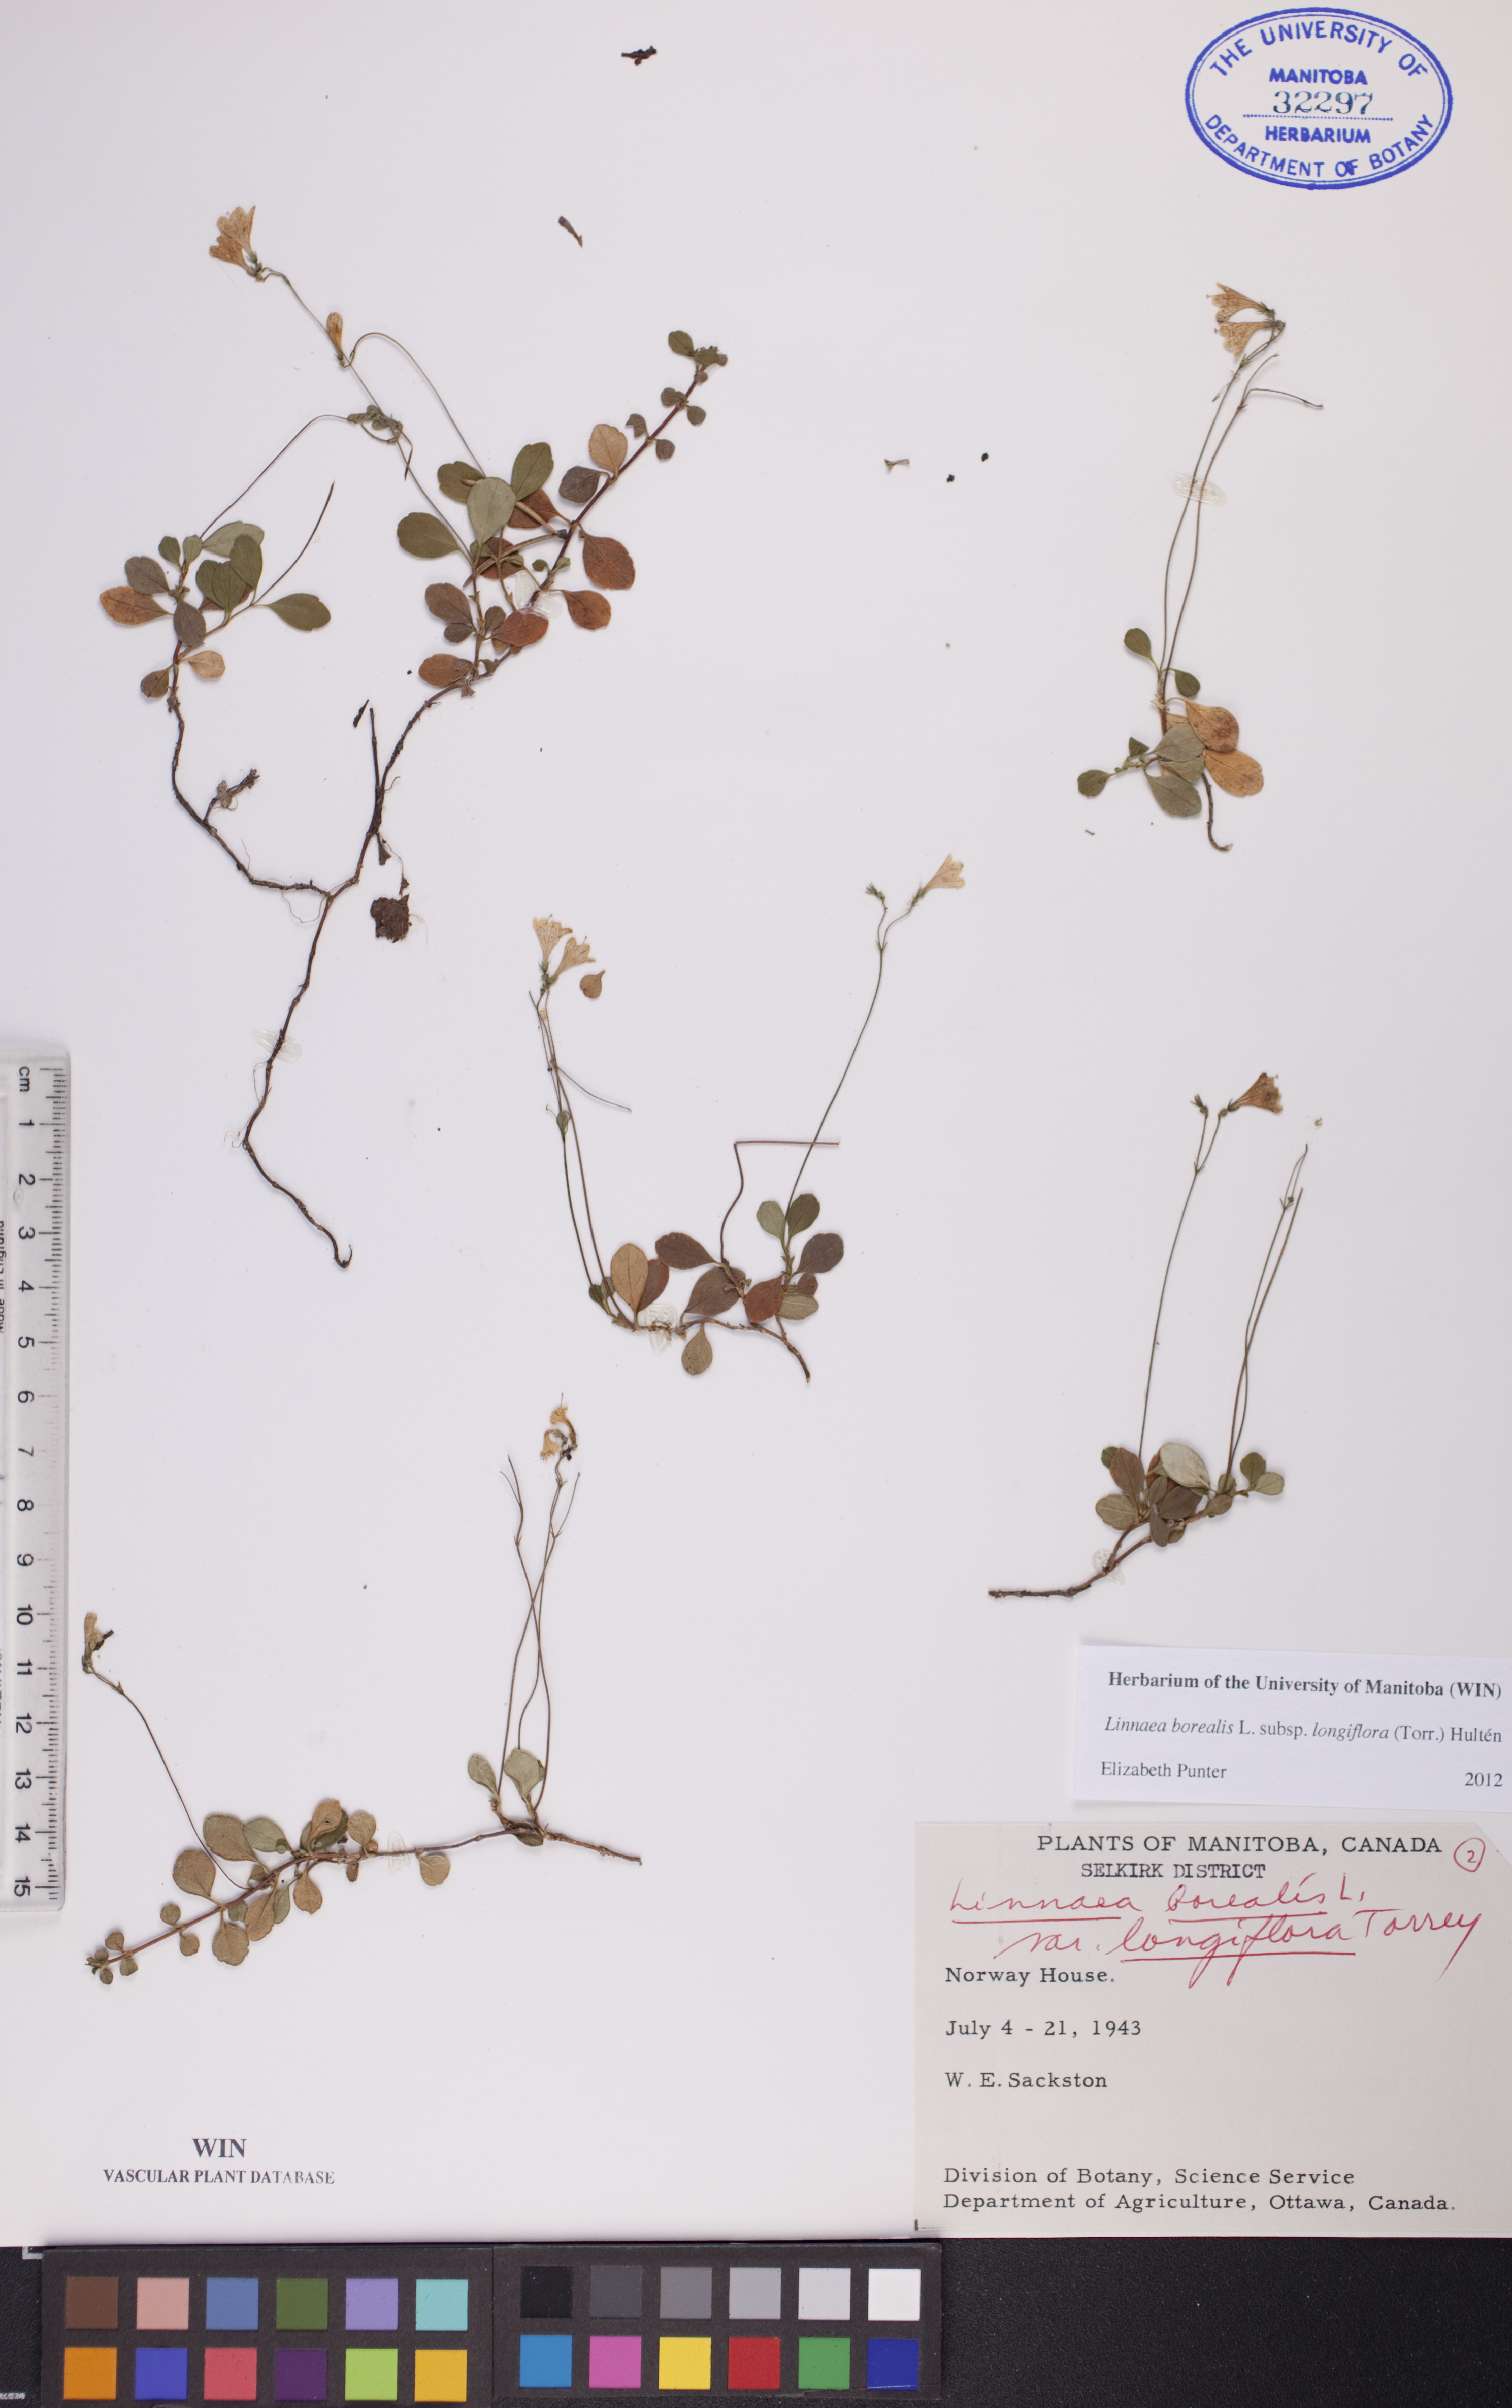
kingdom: Plantae
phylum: Tracheophyta
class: Magnoliopsida
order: Dipsacales
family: Caprifoliaceae
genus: Linnaea
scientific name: Linnaea borealis
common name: Twinflower
